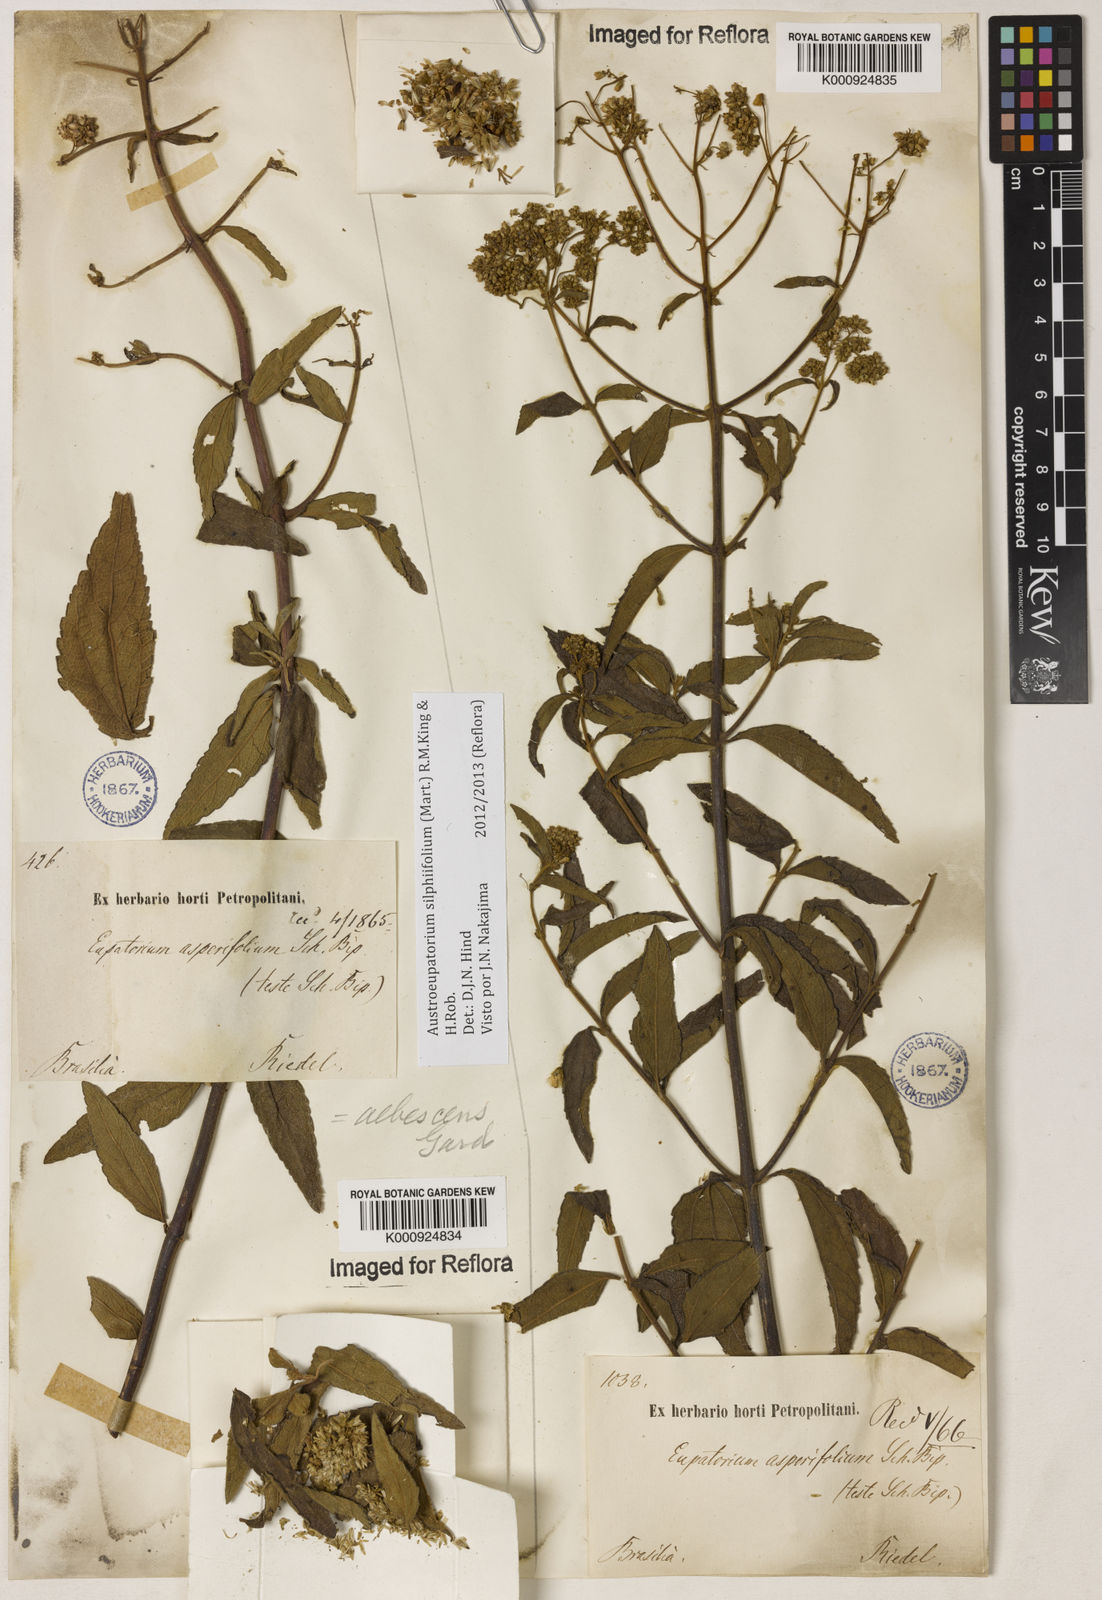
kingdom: Plantae
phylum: Tracheophyta
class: Magnoliopsida
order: Asterales
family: Asteraceae
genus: Austroeupatorium
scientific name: Austroeupatorium silphiifolium
